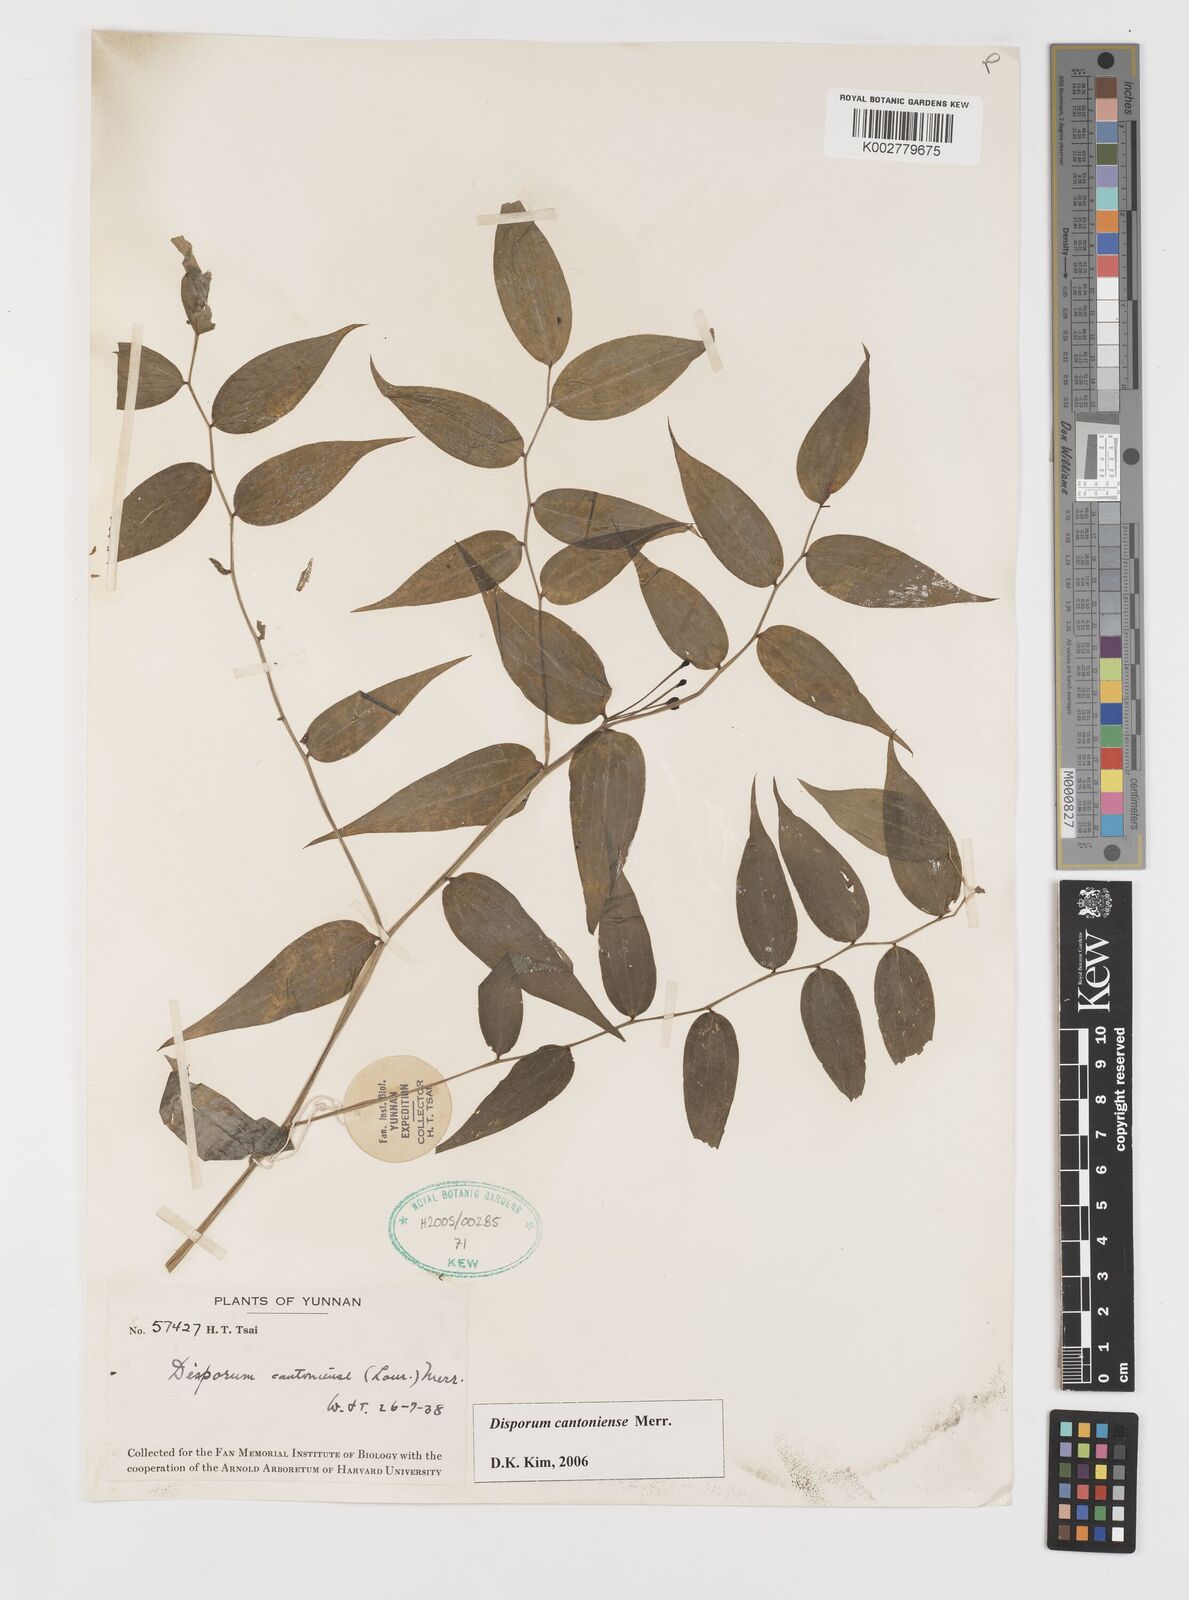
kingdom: Plantae
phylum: Tracheophyta
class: Liliopsida
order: Liliales
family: Colchicaceae
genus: Disporum
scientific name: Disporum cantoniense
